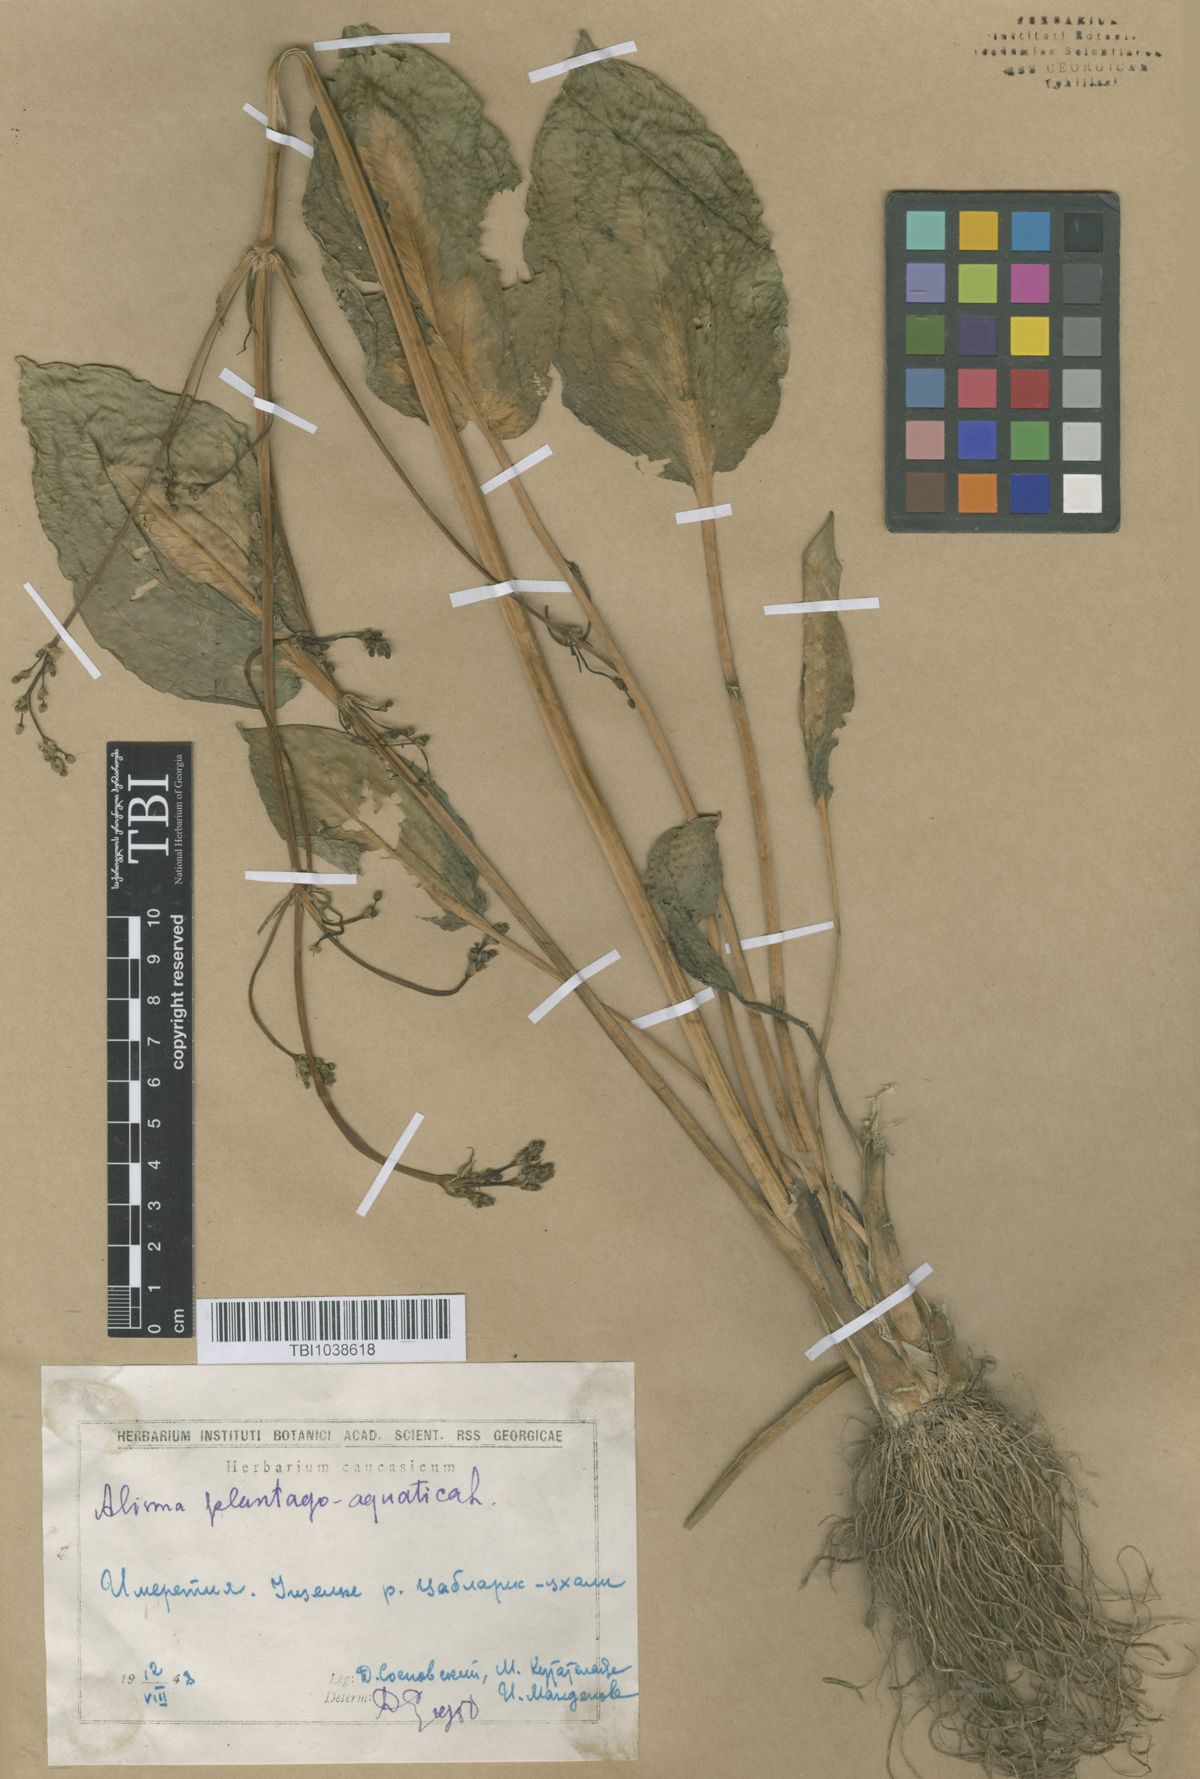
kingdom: Plantae
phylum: Tracheophyta
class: Liliopsida
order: Alismatales
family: Alismataceae
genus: Alisma
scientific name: Alisma plantago-aquatica
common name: Water-plantain
